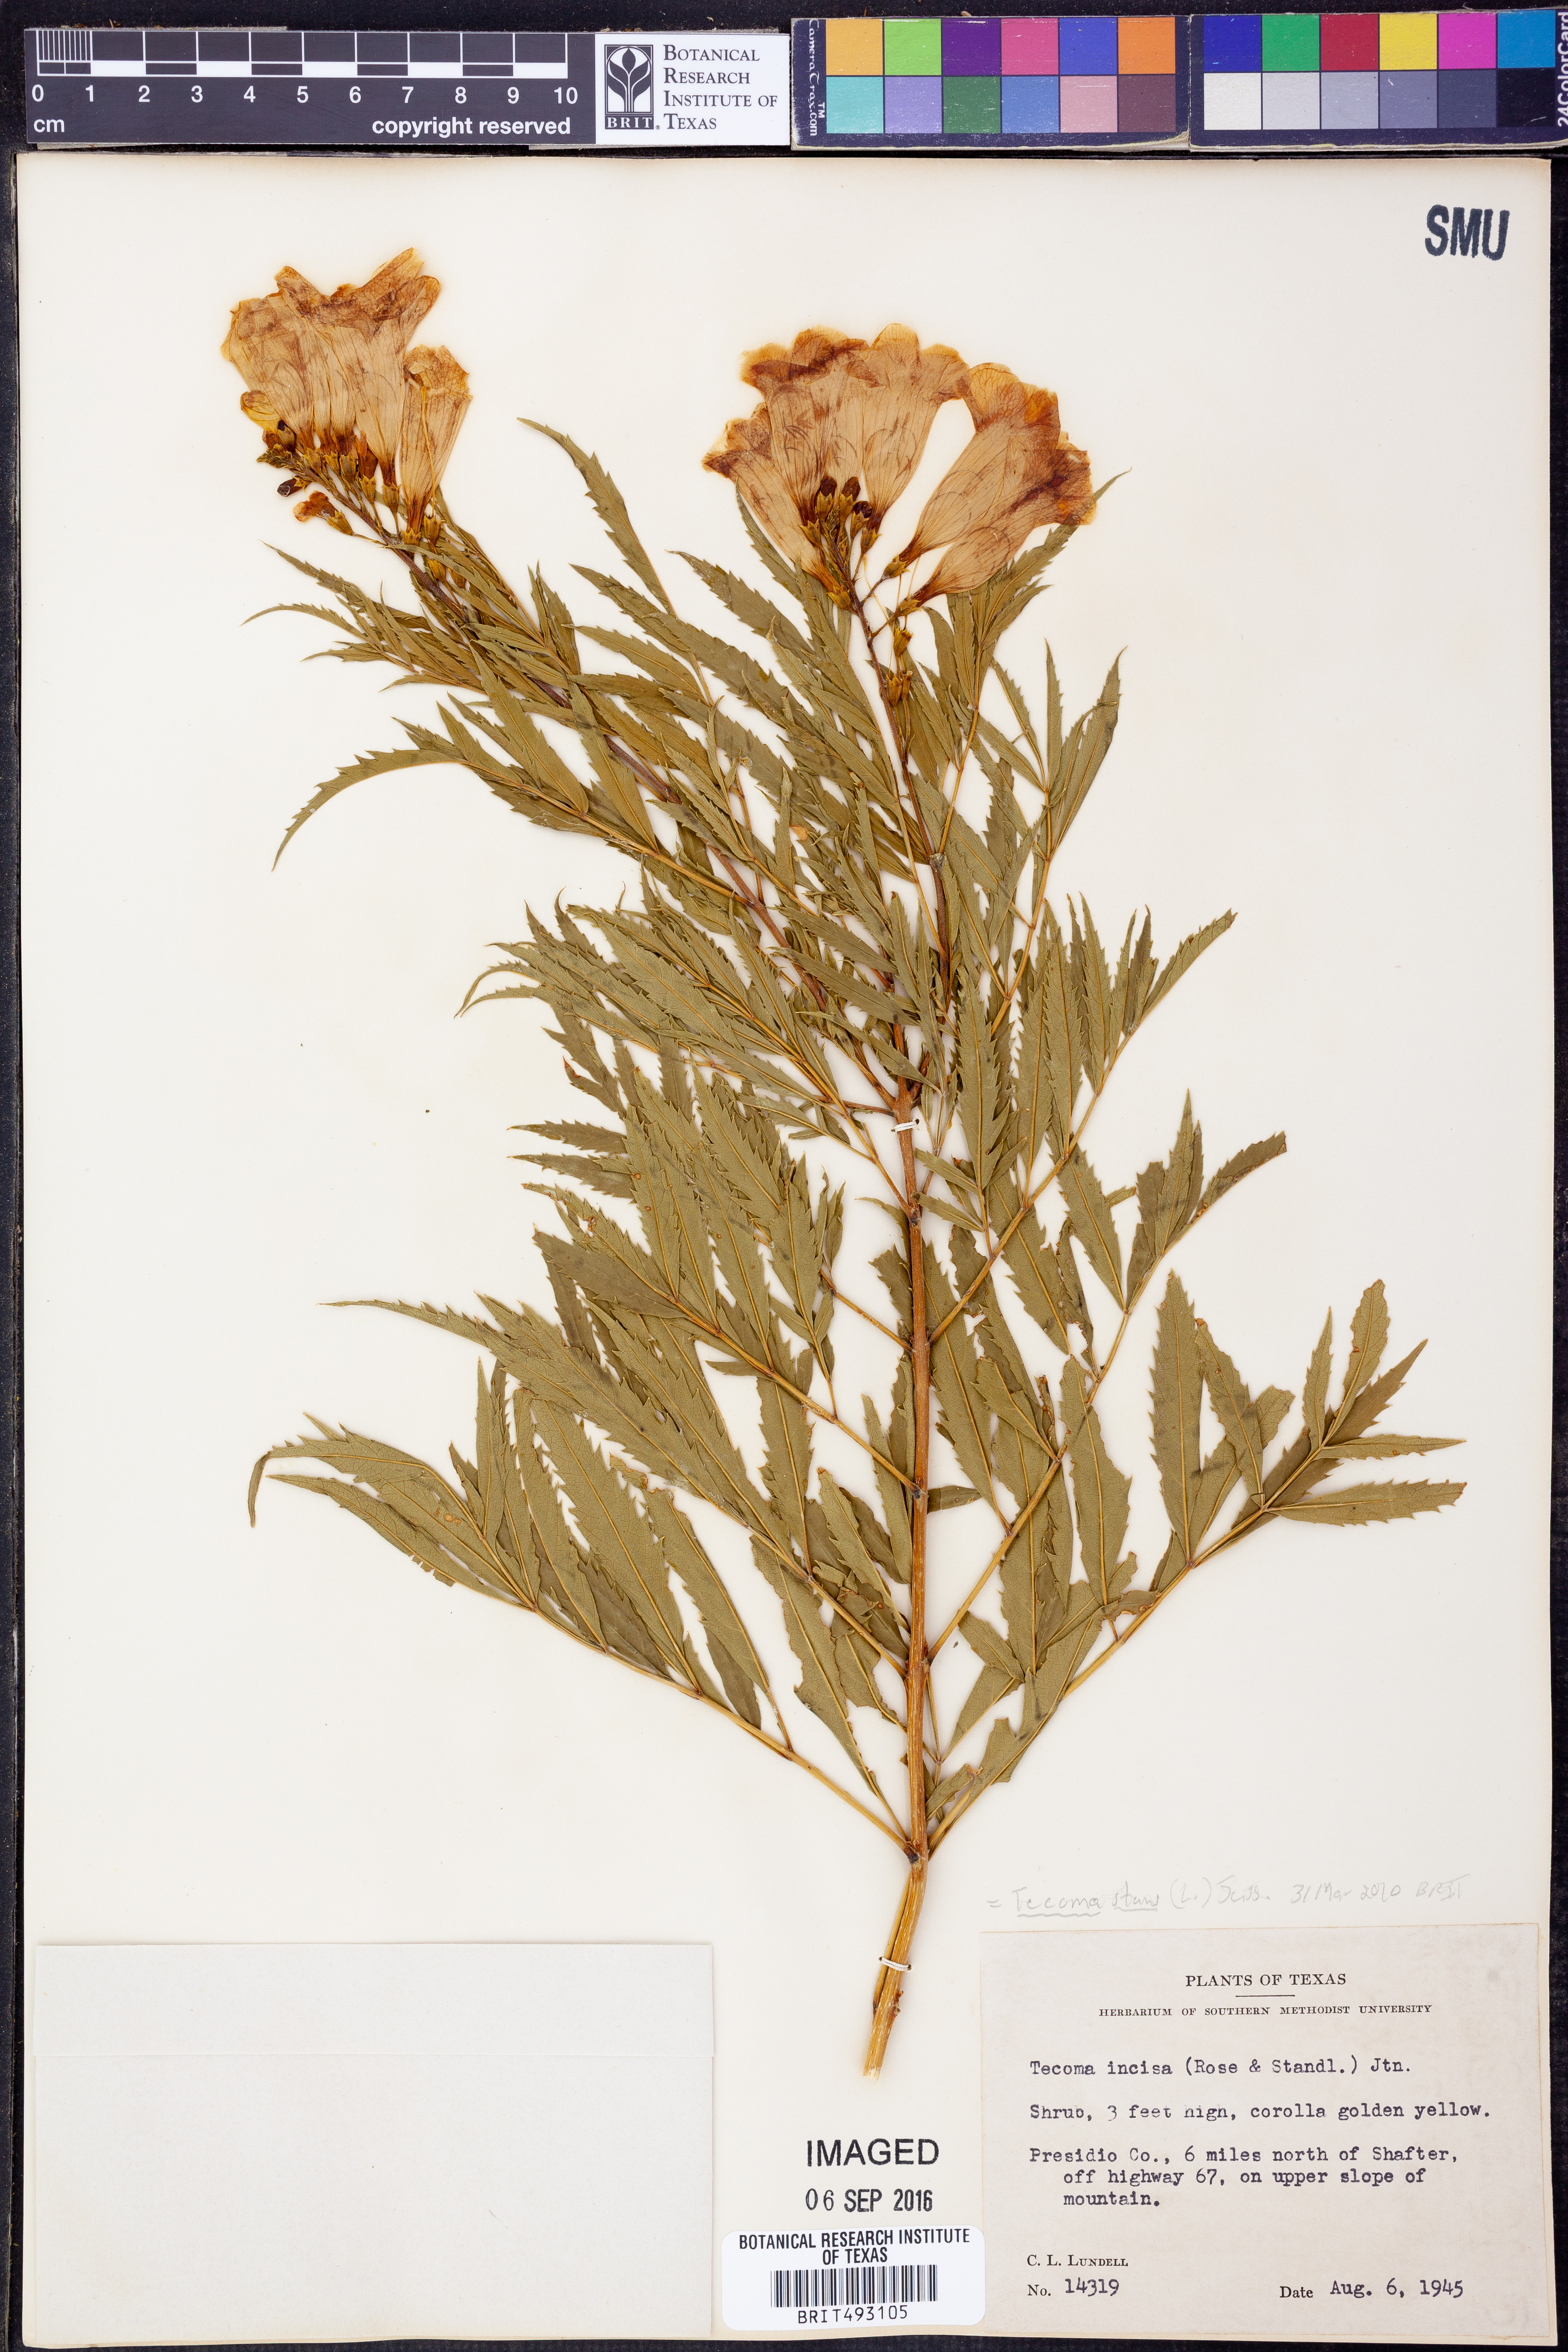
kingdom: Plantae
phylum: Tracheophyta
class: Magnoliopsida
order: Lamiales
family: Bignoniaceae
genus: Tecoma
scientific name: Tecoma stans
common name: Yellow trumpetbush
